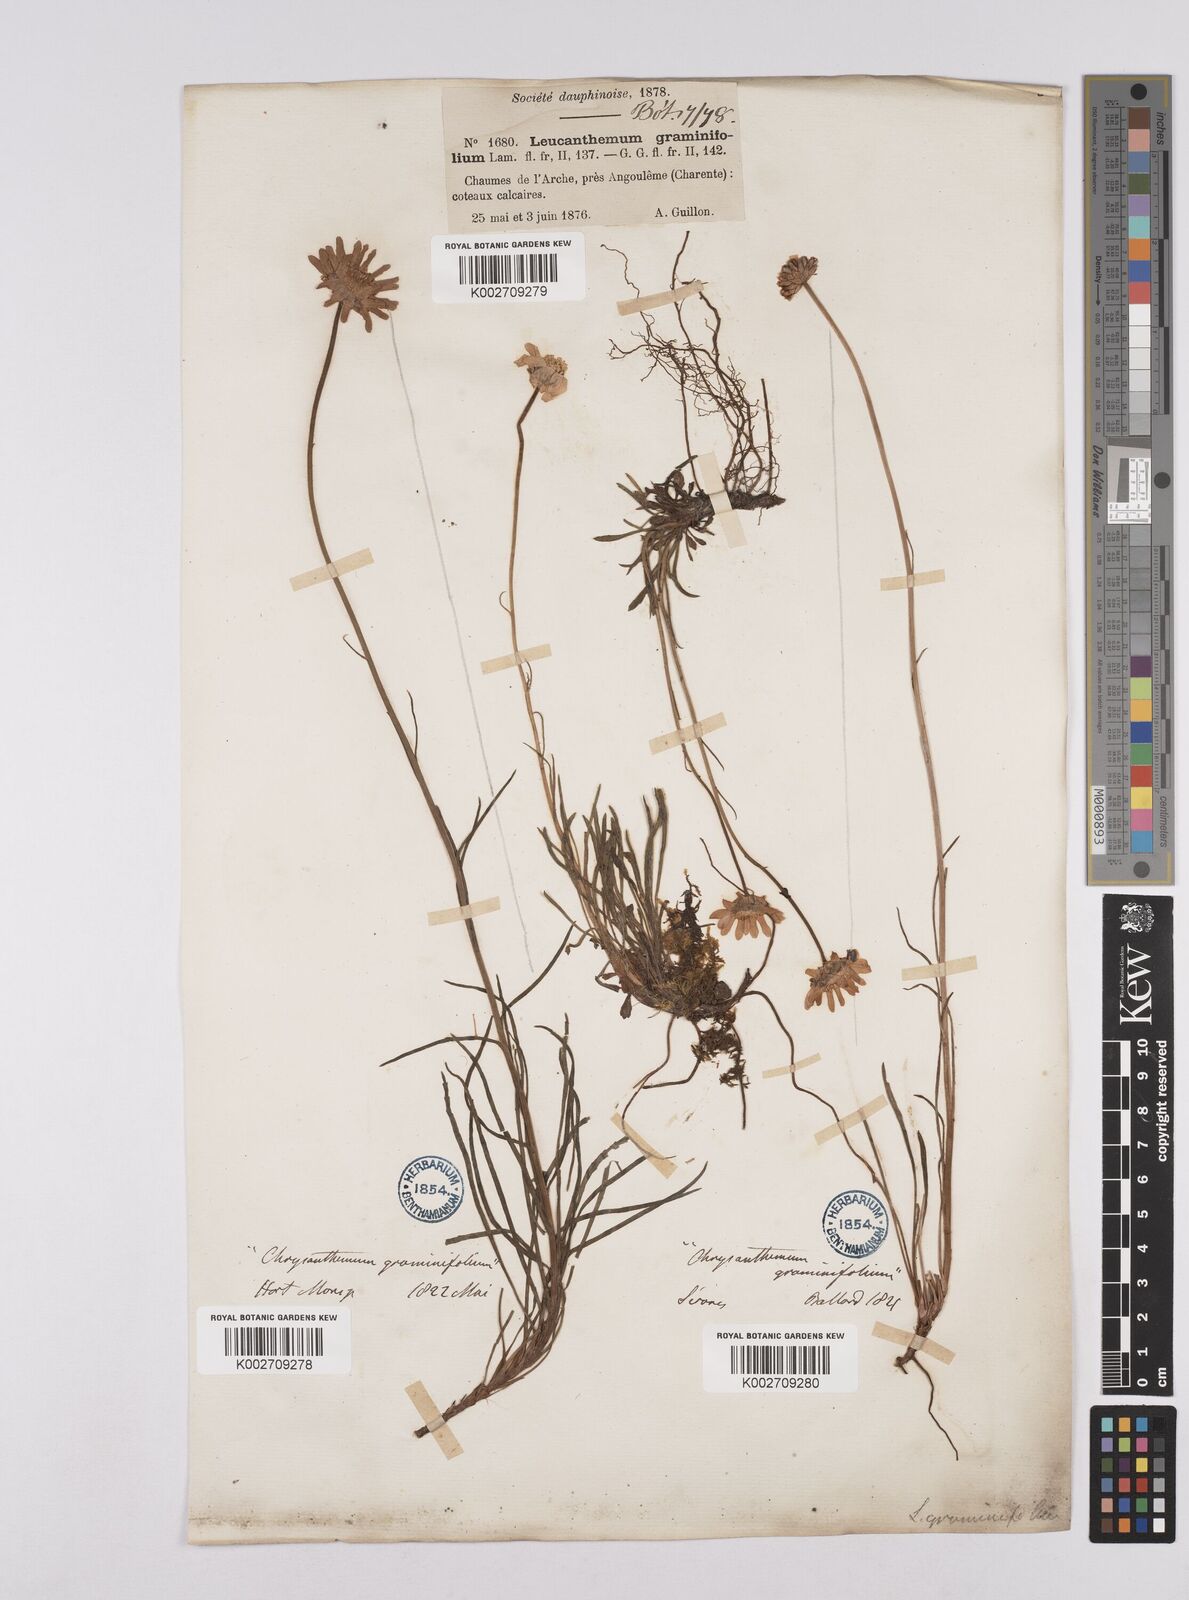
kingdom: Plantae
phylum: Tracheophyta
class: Magnoliopsida
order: Asterales
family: Asteraceae
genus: Leucanthemum
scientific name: Leucanthemum chloroticum
